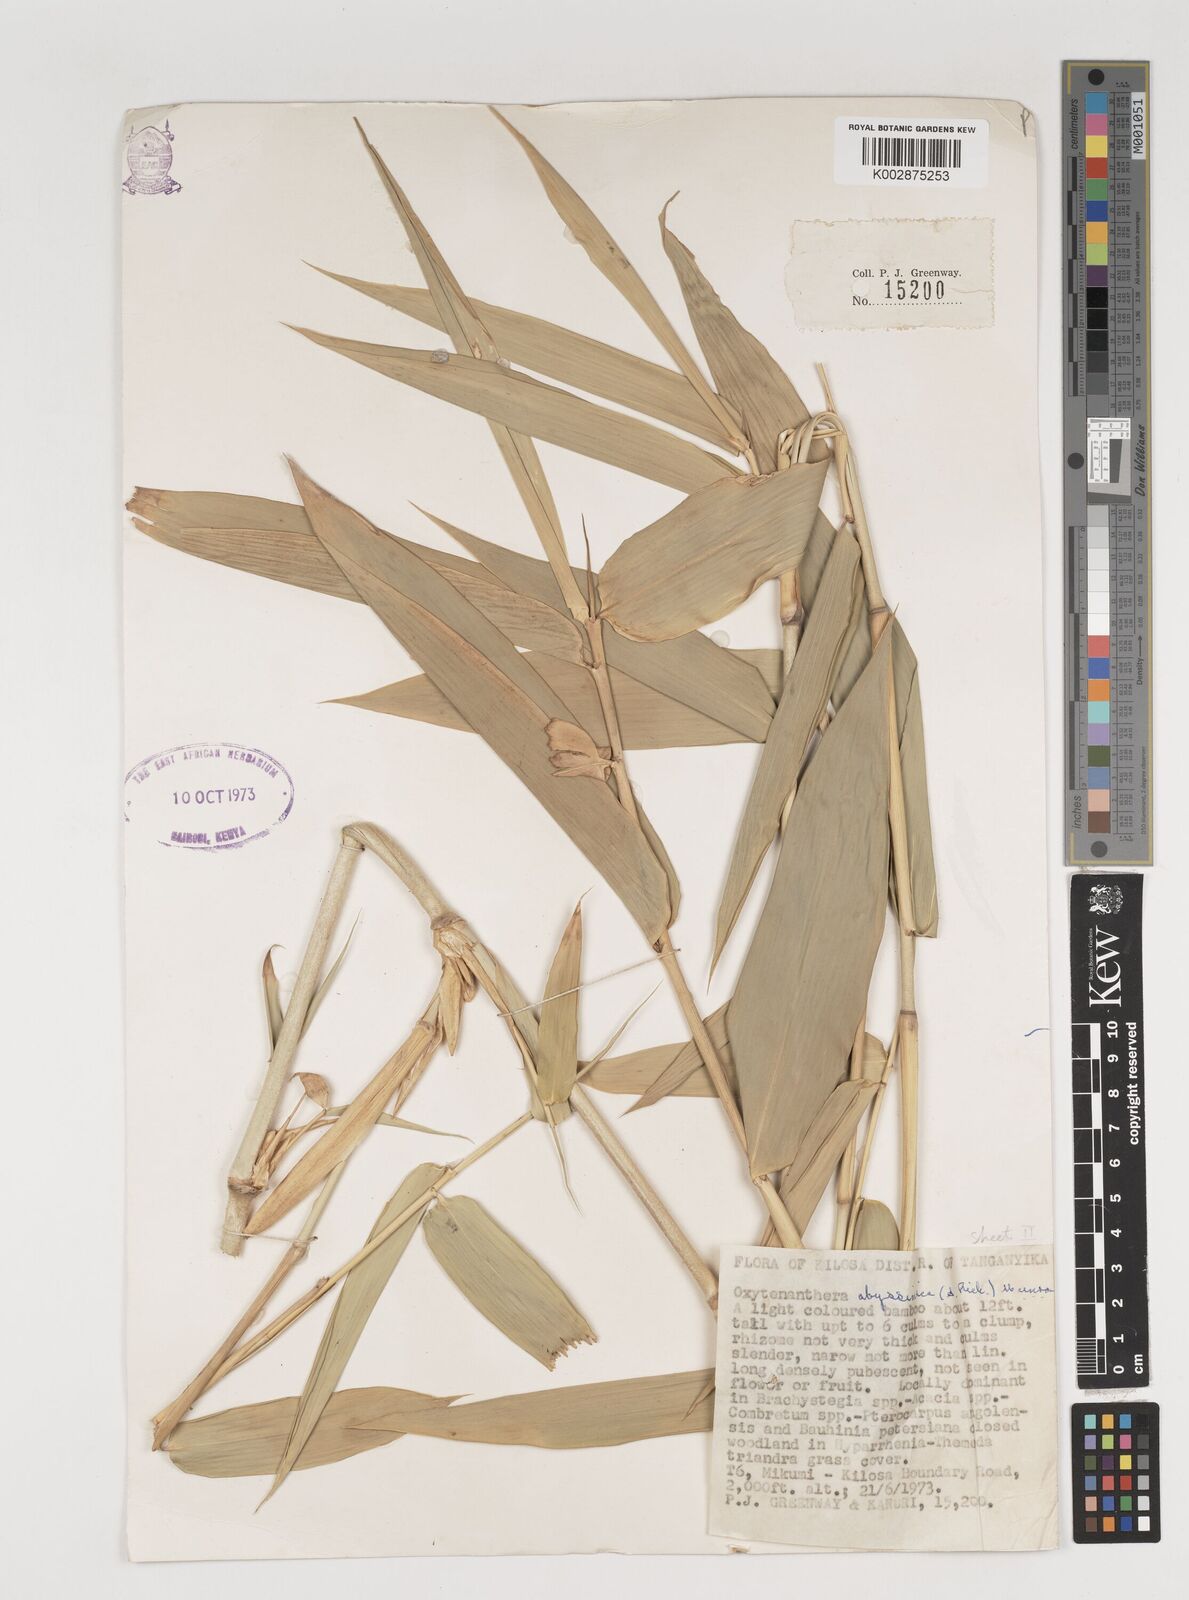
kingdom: Plantae
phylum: Tracheophyta
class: Liliopsida
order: Poales
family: Poaceae
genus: Oxytenanthera
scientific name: Oxytenanthera
